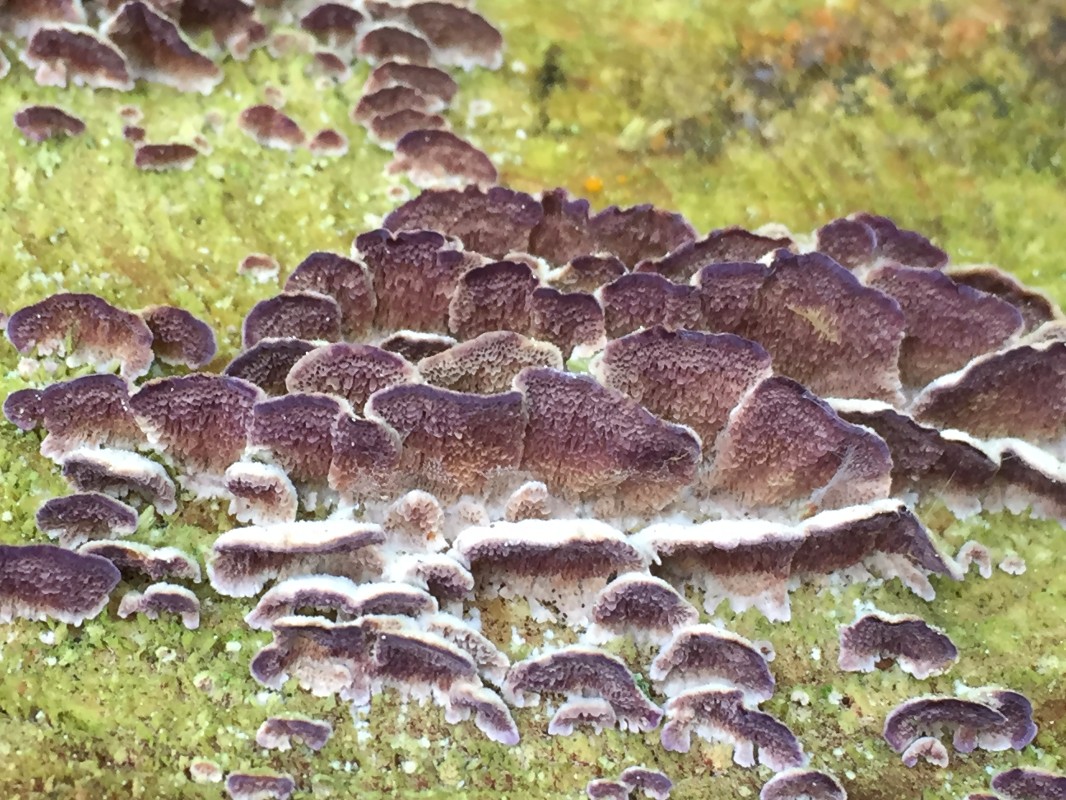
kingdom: Fungi
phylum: Basidiomycota
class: Agaricomycetes
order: Hymenochaetales
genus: Trichaptum
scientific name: Trichaptum abietinum
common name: almindelig violporesvamp
